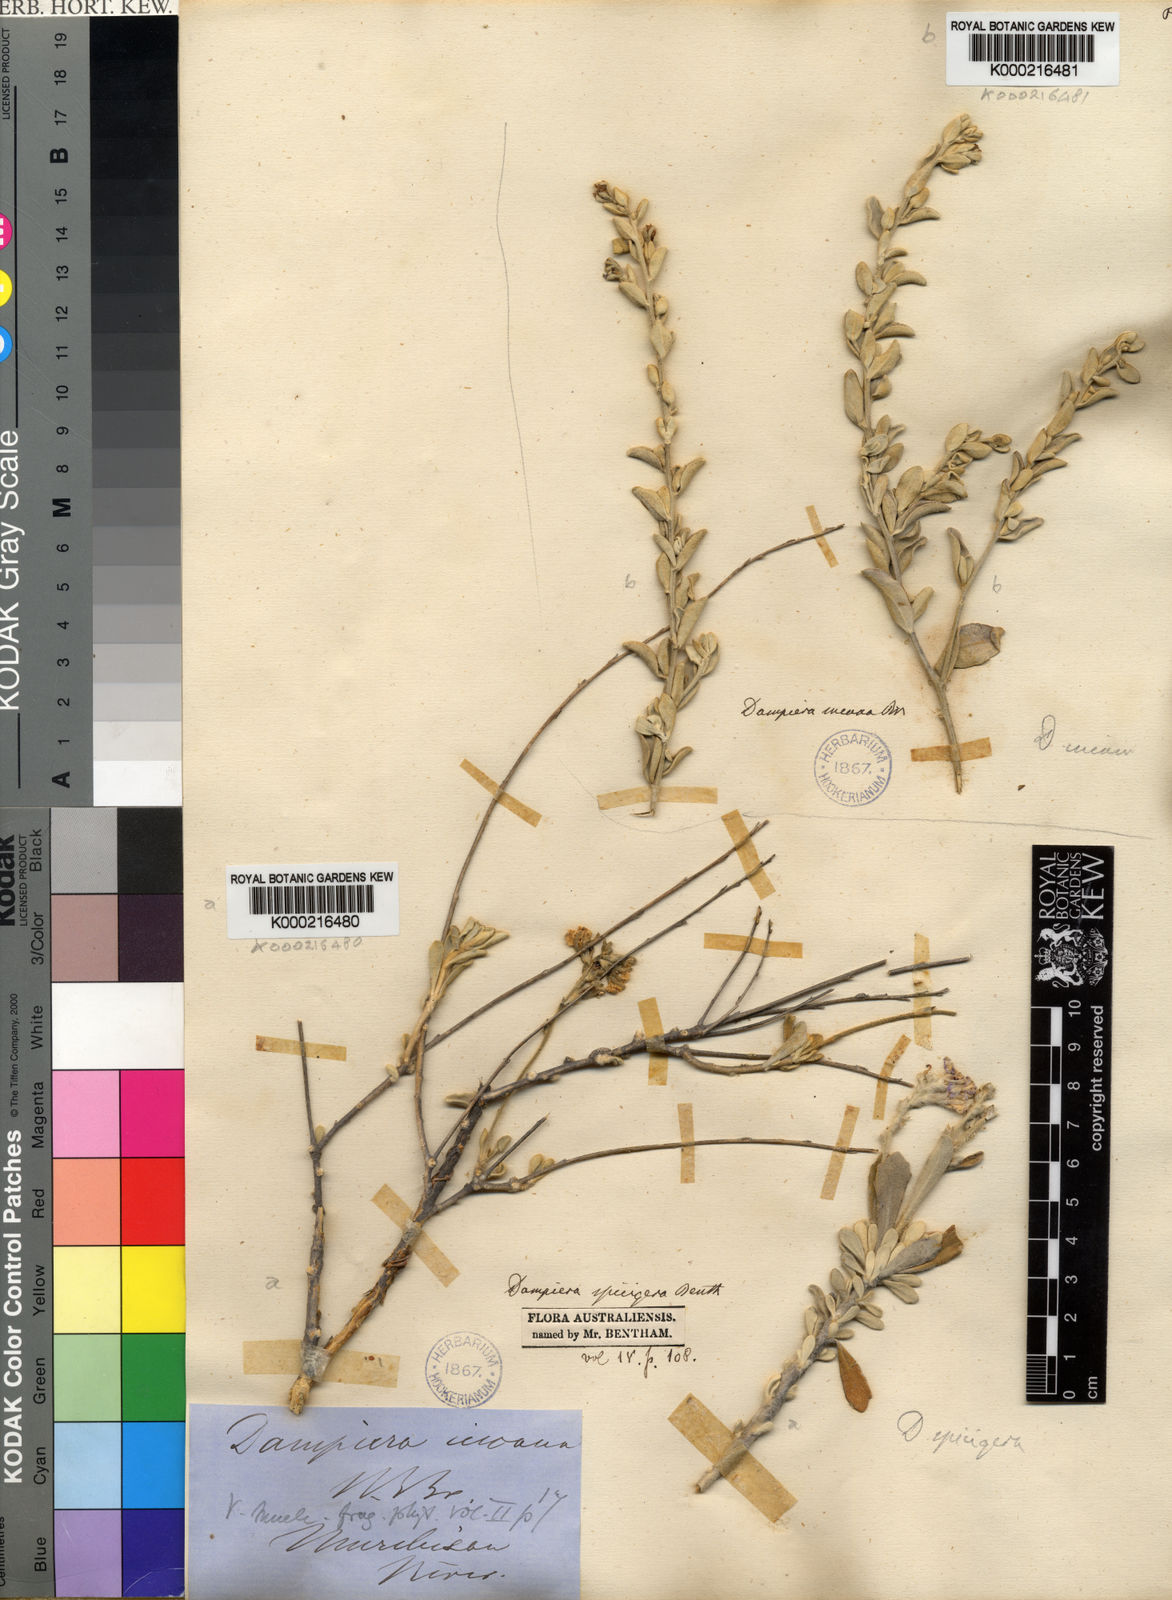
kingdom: Plantae
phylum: Tracheophyta
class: Magnoliopsida
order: Asterales
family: Goodeniaceae
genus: Dampiera
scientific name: Dampiera incana
